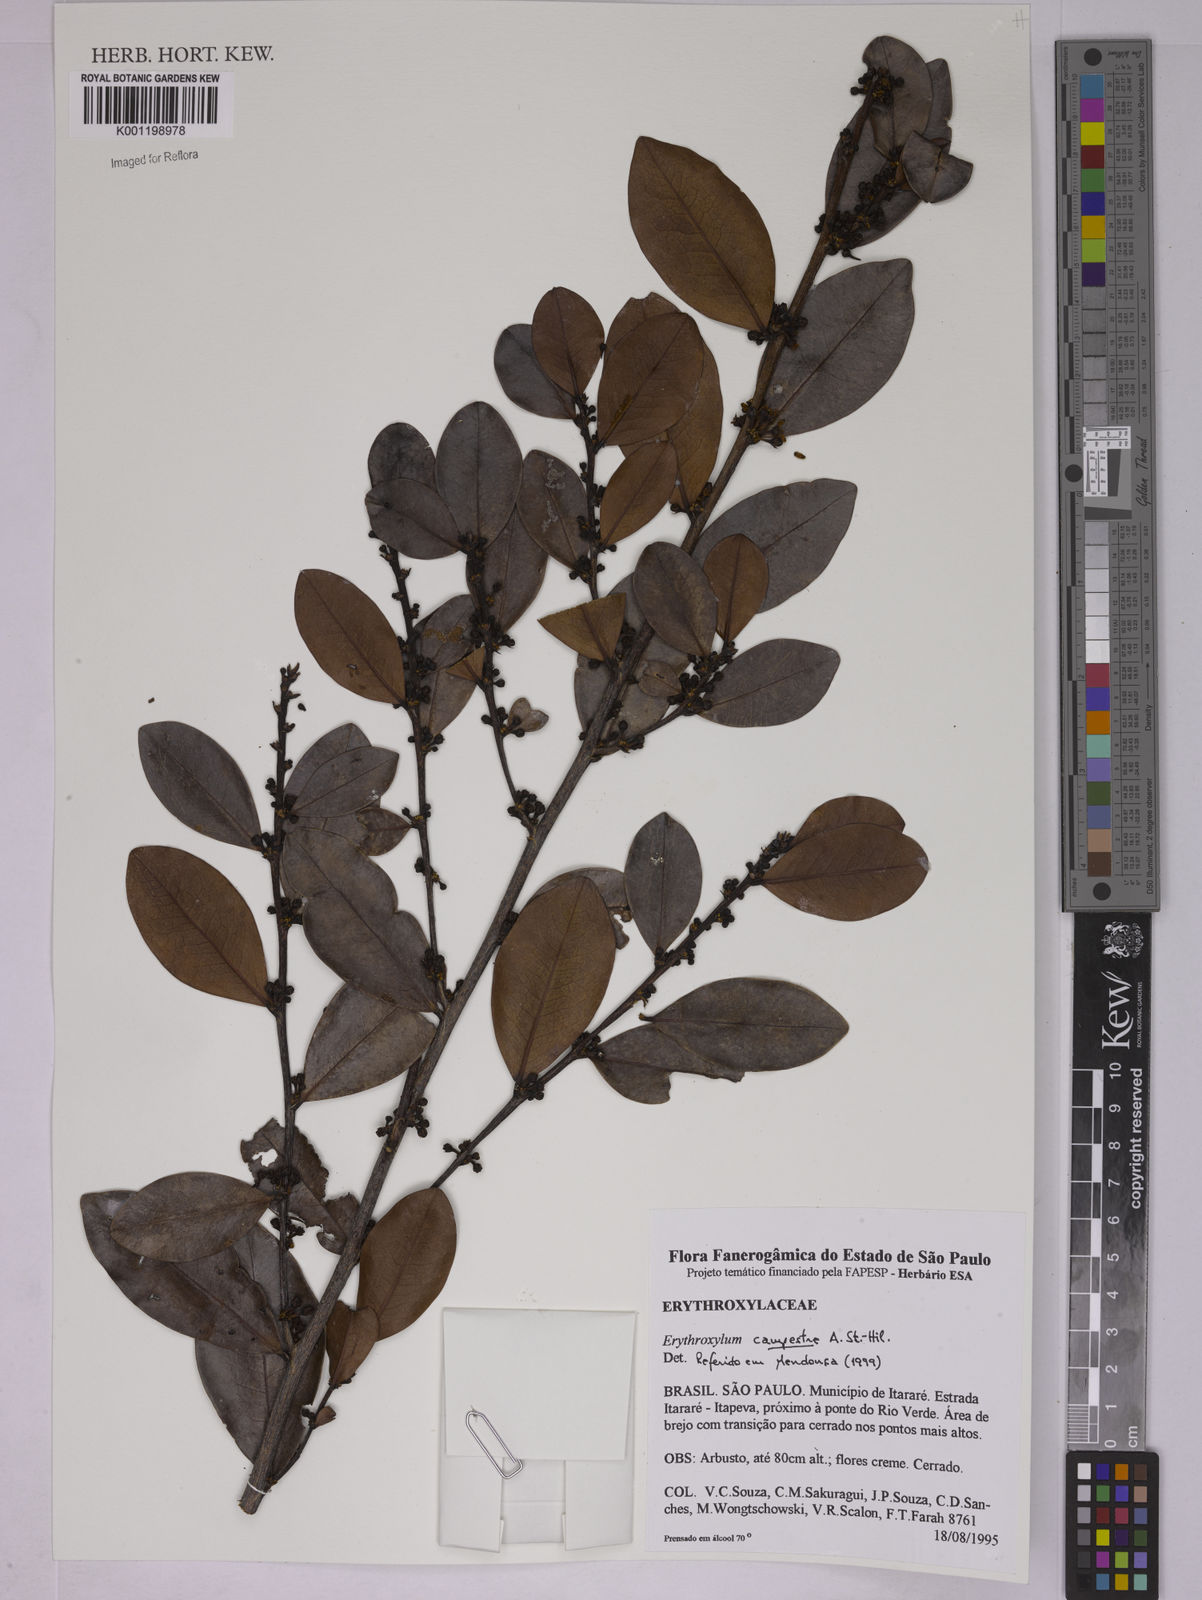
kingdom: Plantae
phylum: Tracheophyta
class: Magnoliopsida
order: Malpighiales
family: Erythroxylaceae
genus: Erythroxylum
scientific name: Erythroxylum campestre
